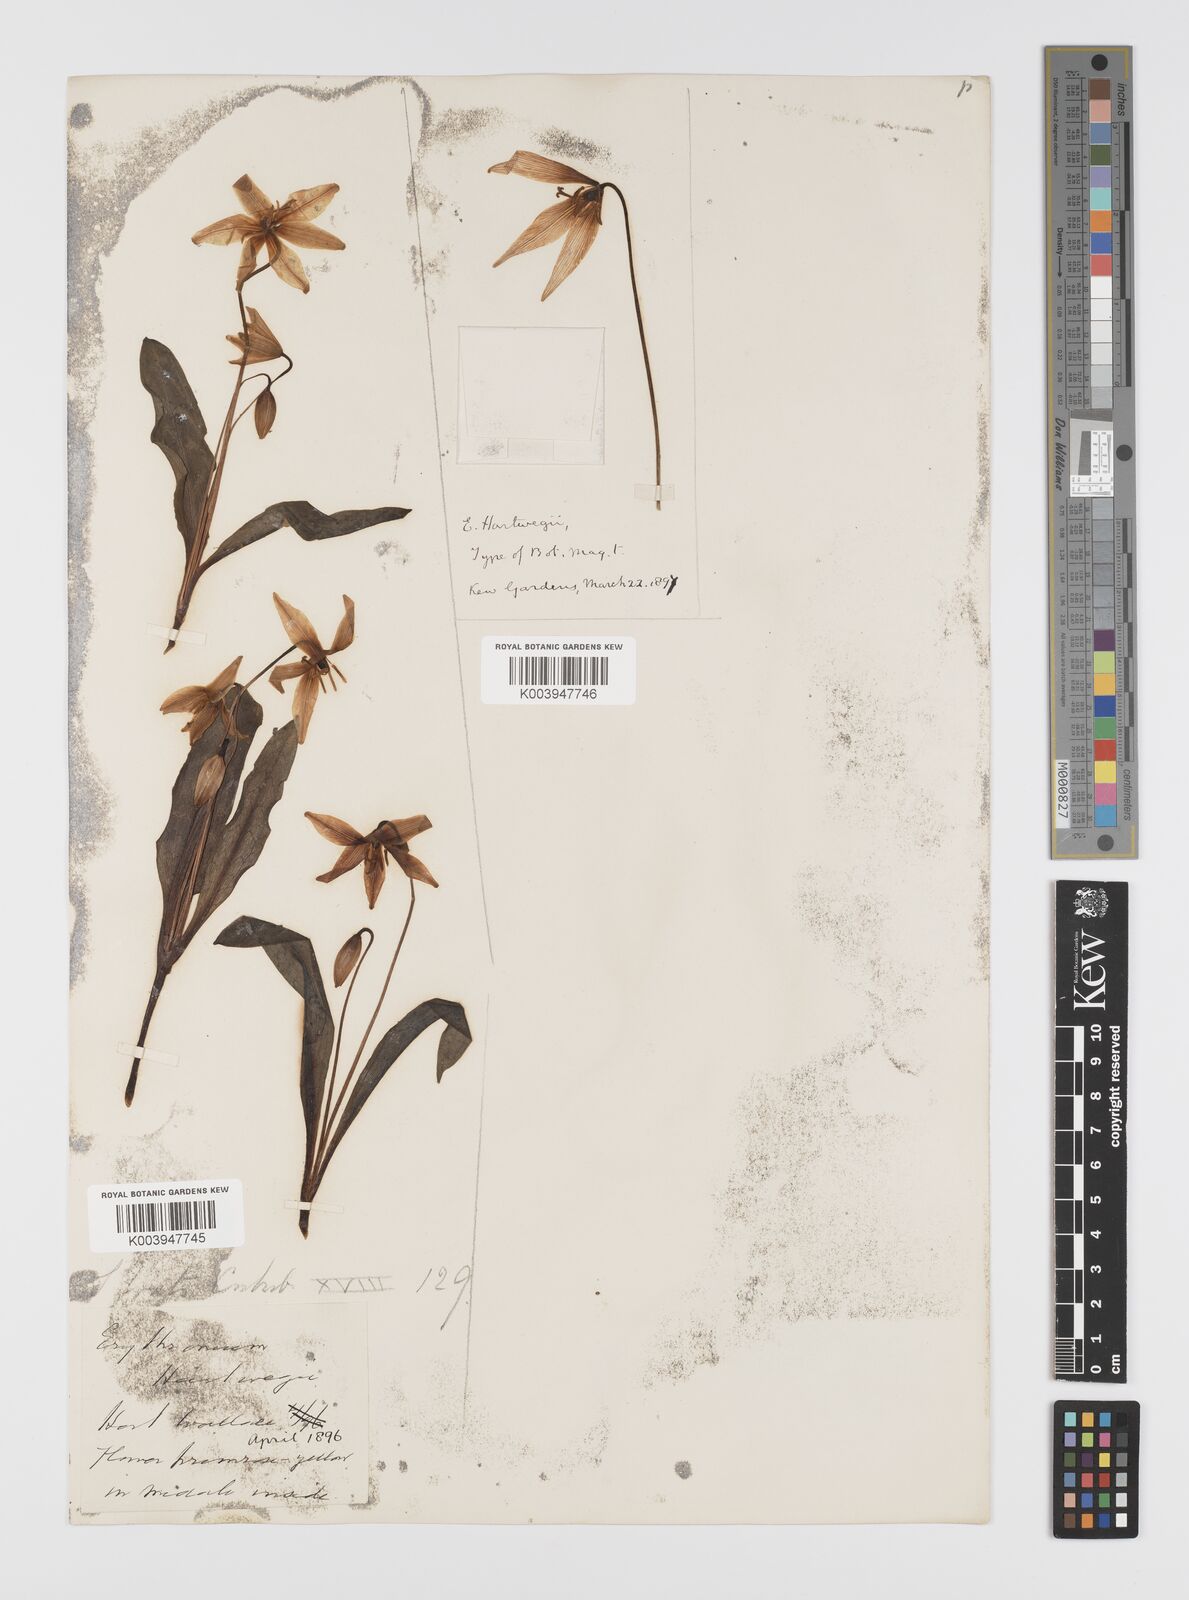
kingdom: Plantae
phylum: Tracheophyta
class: Liliopsida
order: Liliales
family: Liliaceae
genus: Erythronium
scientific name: Erythronium multiscapideum
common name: Sierra foothills fawn-lily
